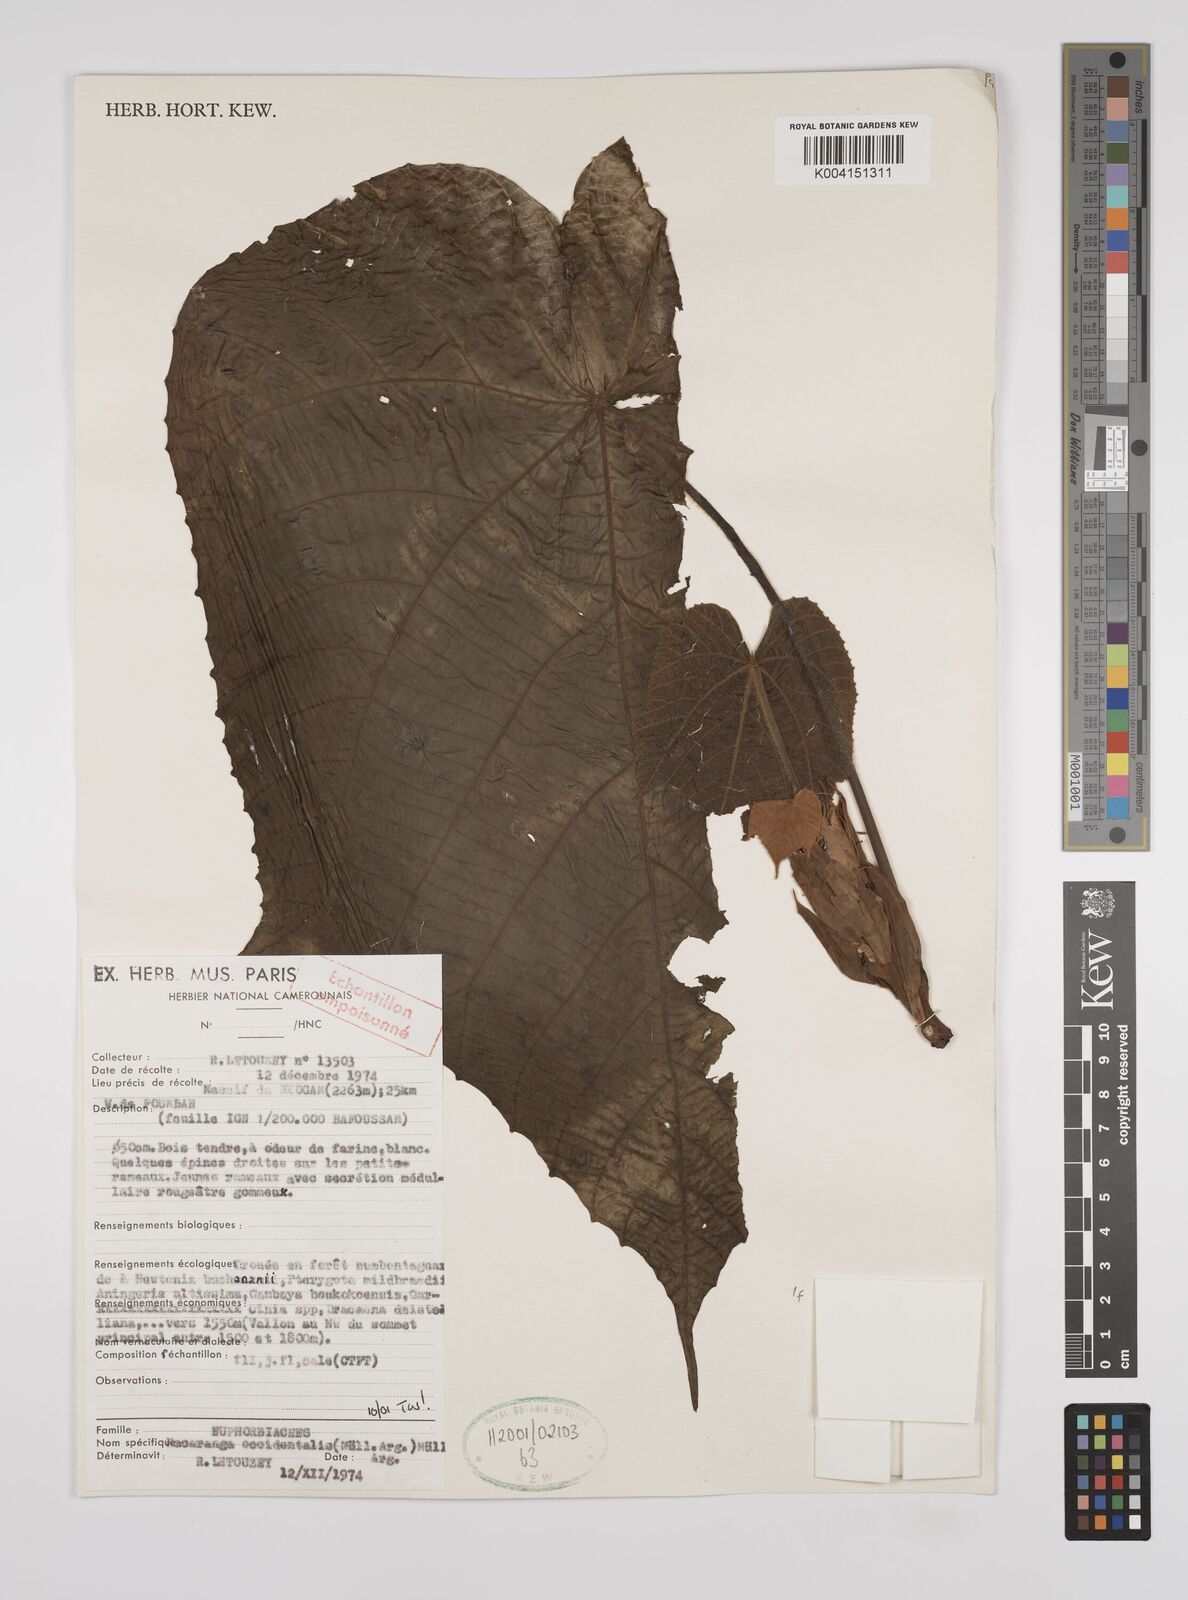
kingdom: Plantae
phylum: Tracheophyta
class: Magnoliopsida
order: Malpighiales
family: Euphorbiaceae
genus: Macaranga
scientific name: Macaranga occidentalis
